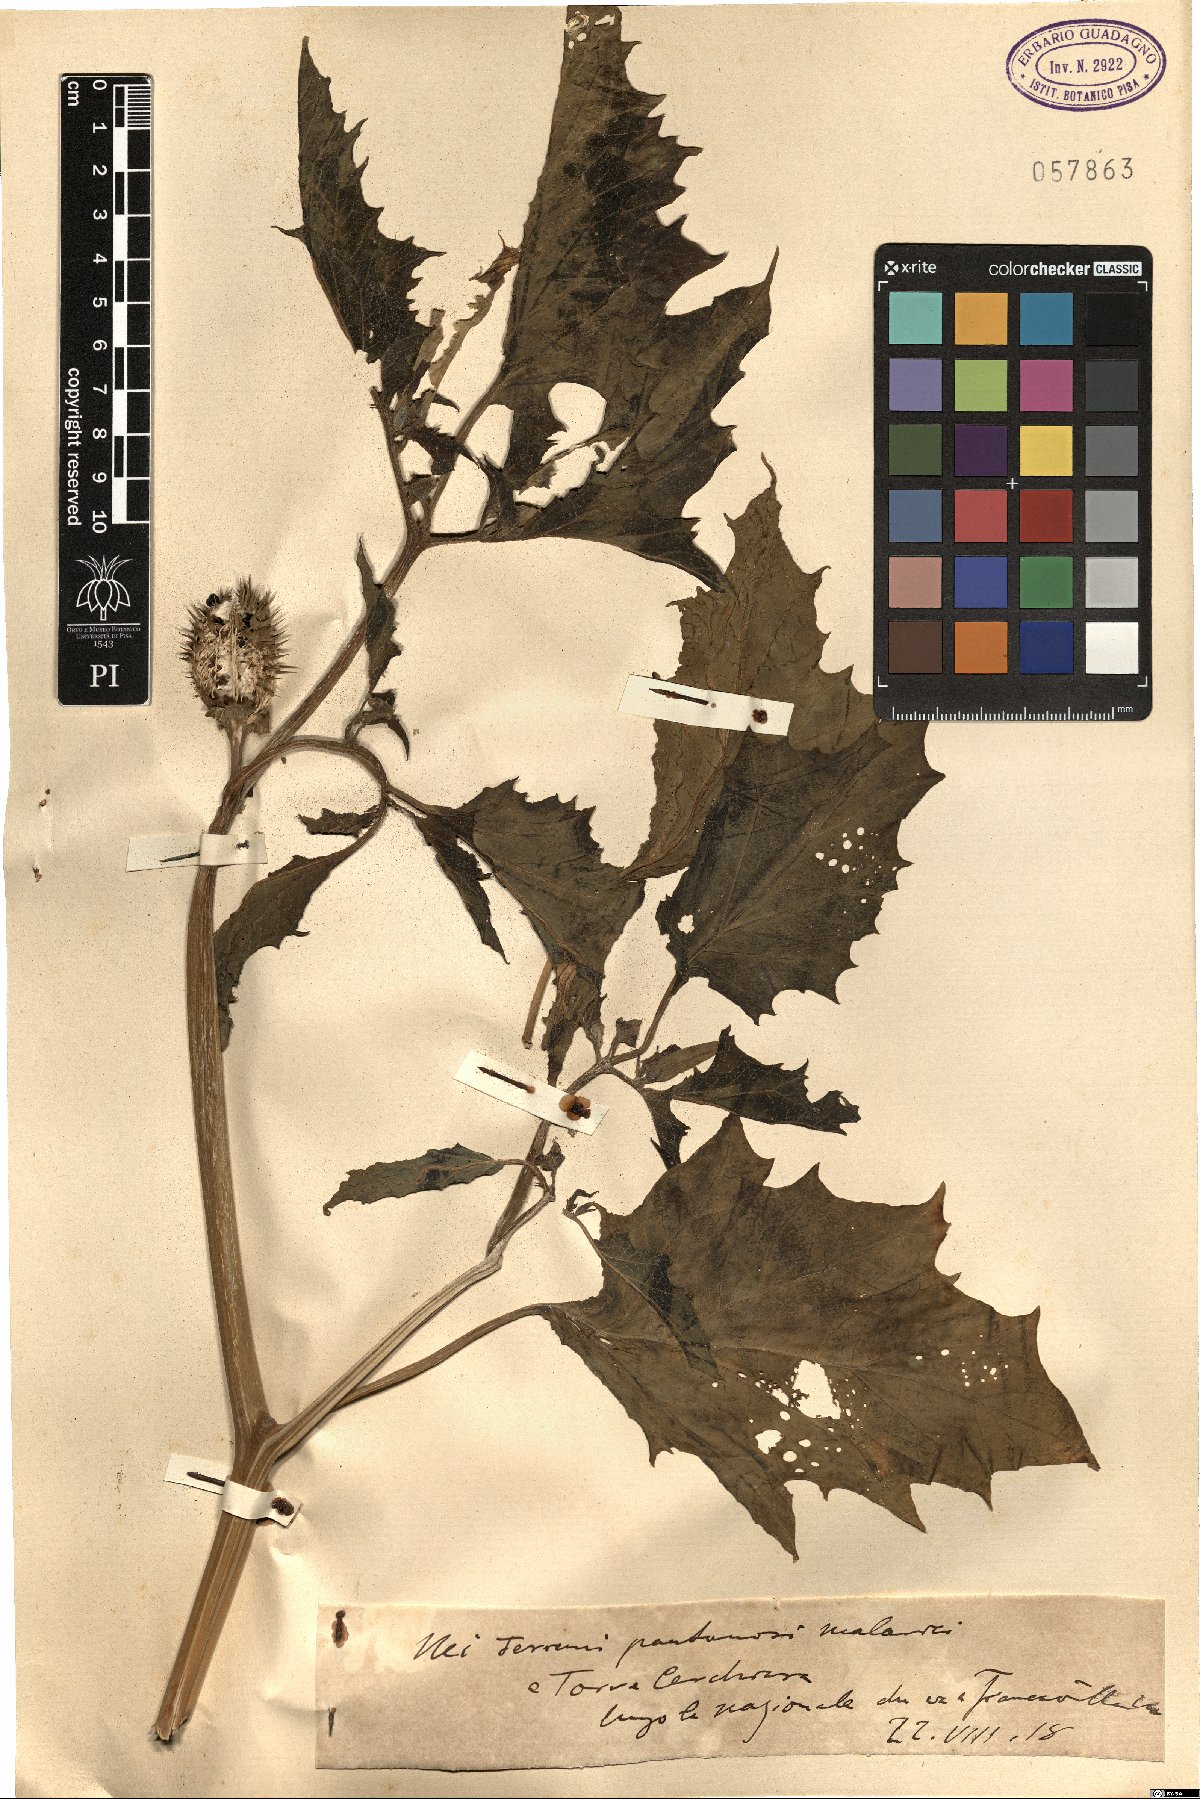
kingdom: Plantae
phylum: Tracheophyta
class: Magnoliopsida
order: Solanales
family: Solanaceae
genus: Datura
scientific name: Datura
